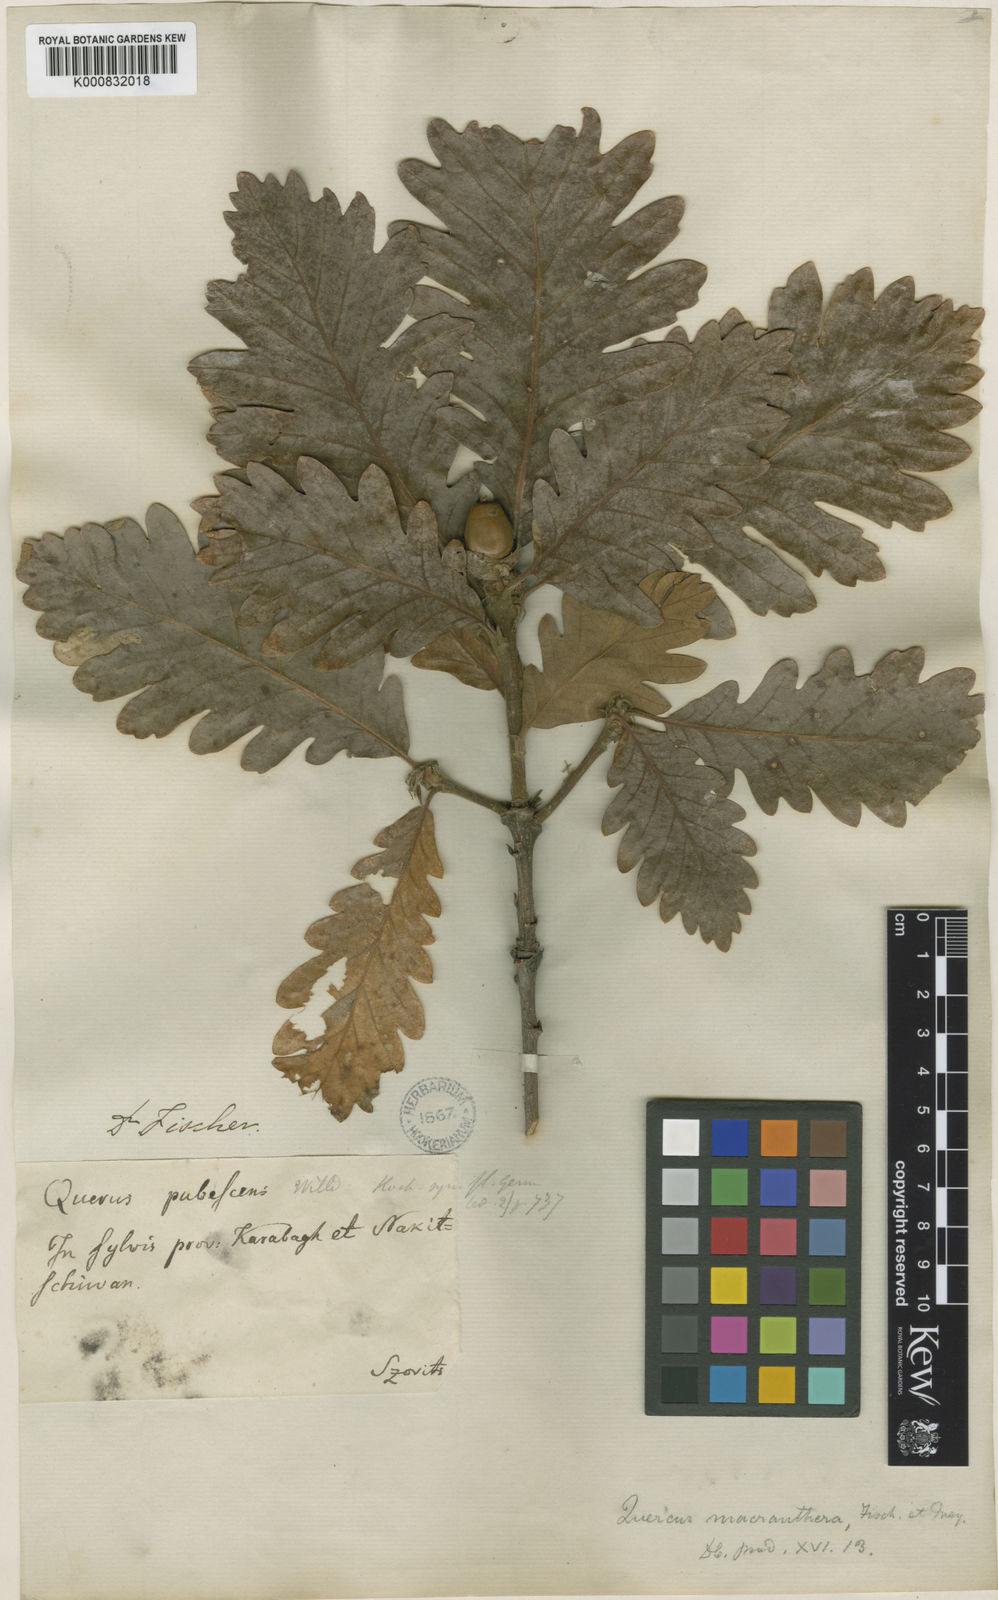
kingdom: Plantae
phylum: Tracheophyta
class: Magnoliopsida
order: Fagales
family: Fagaceae
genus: Quercus
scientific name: Quercus macranthera
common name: Caucasian oak
